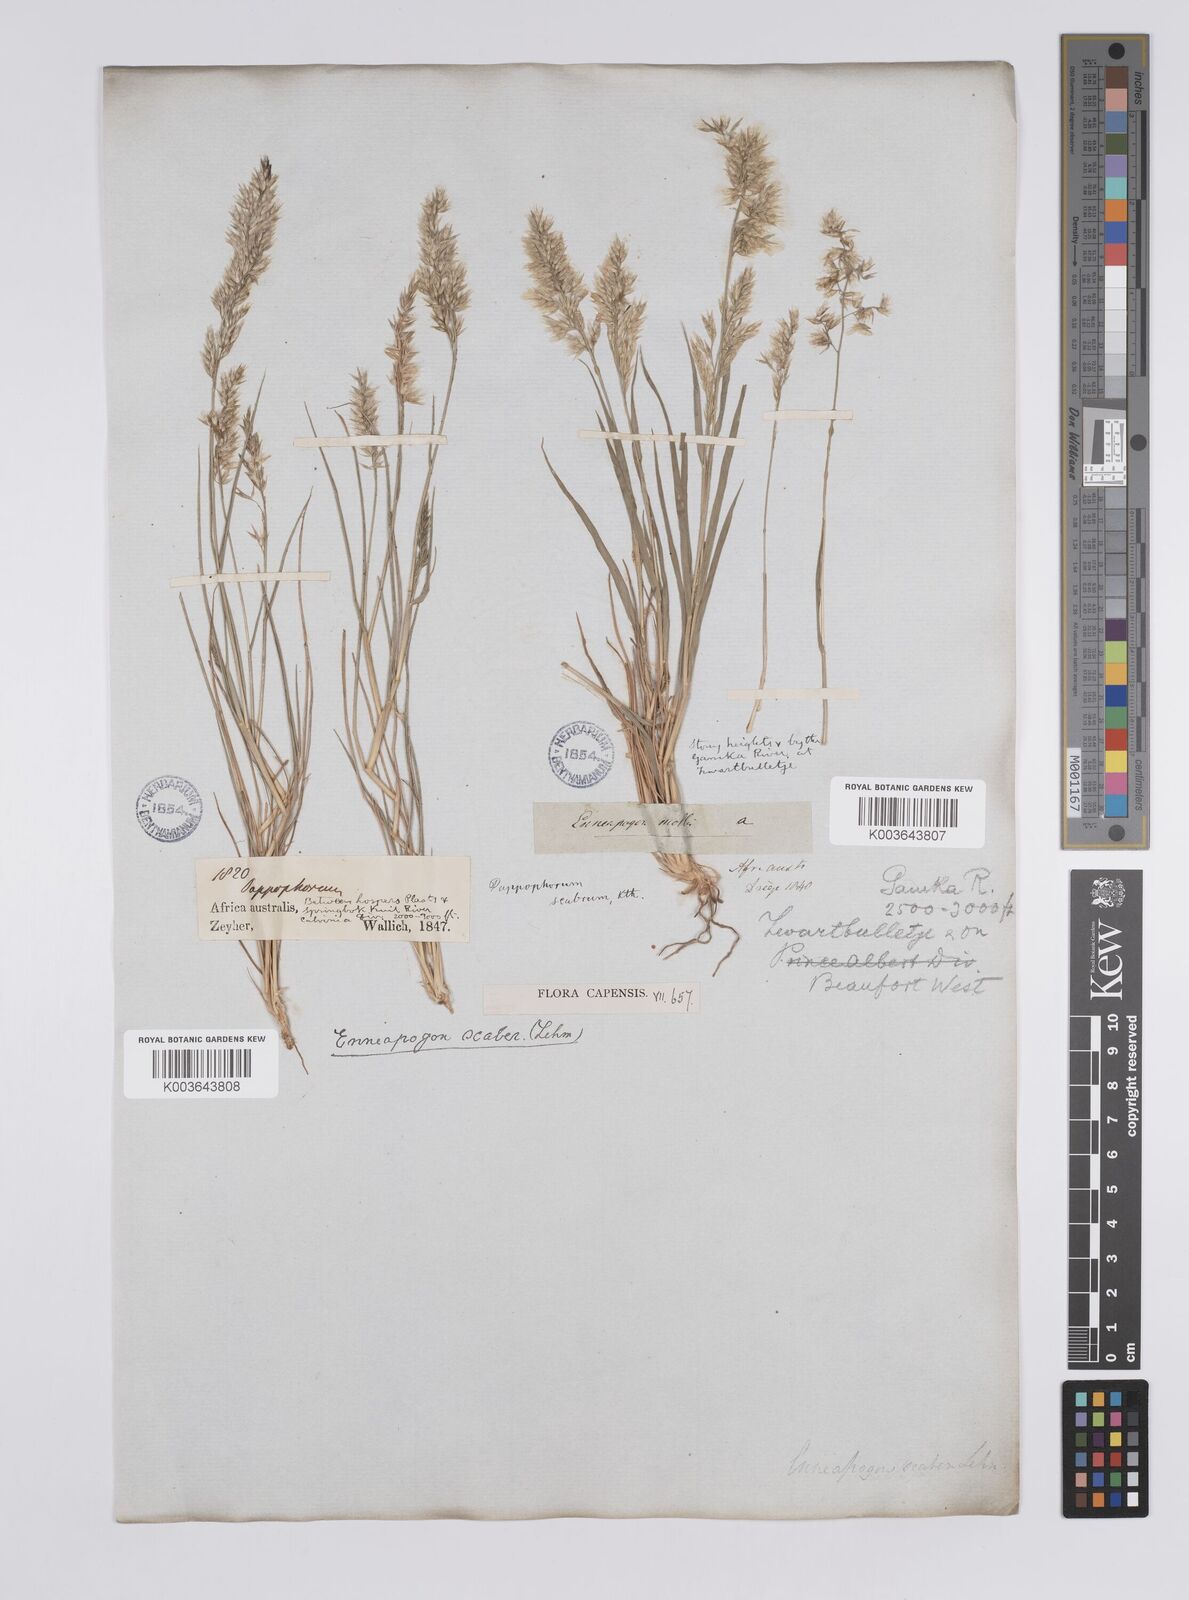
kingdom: Plantae
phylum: Tracheophyta
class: Liliopsida
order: Poales
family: Poaceae
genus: Enneapogon
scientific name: Enneapogon scaber
